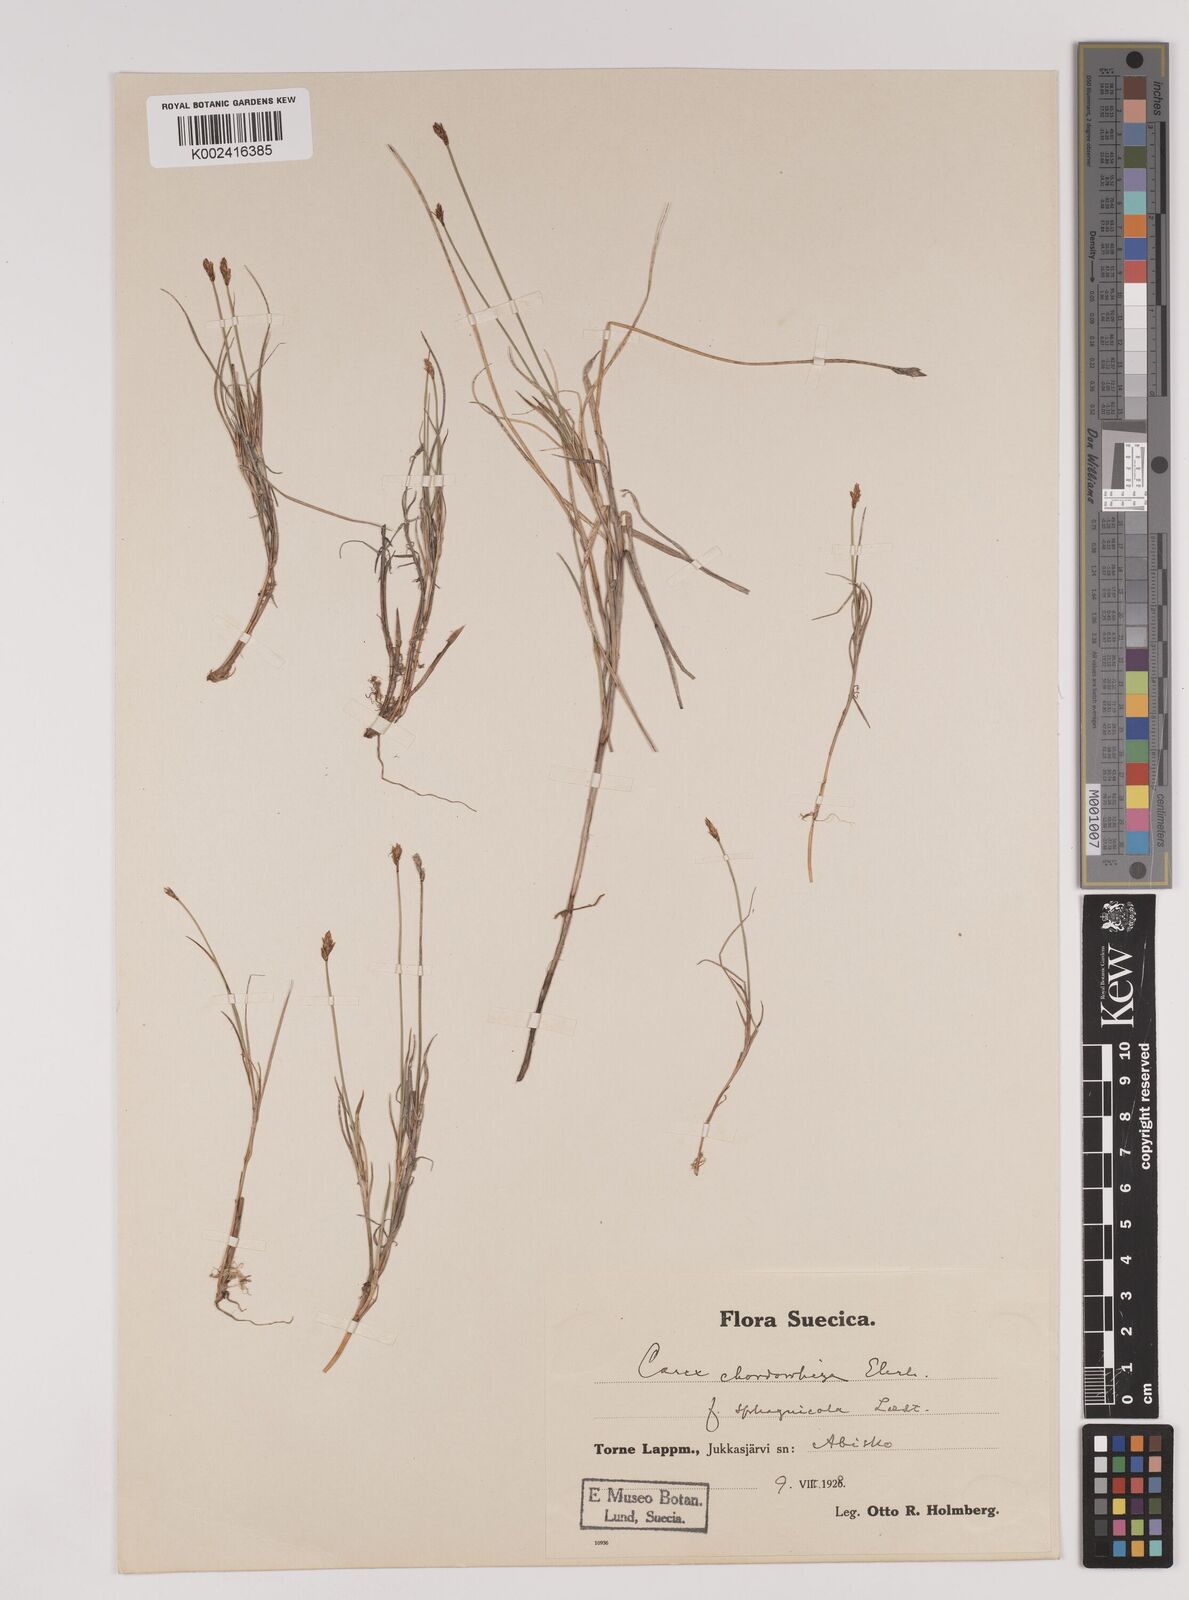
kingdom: Plantae
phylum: Tracheophyta
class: Liliopsida
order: Poales
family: Cyperaceae
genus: Carex
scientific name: Carex chordorrhiza
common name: String sedge
